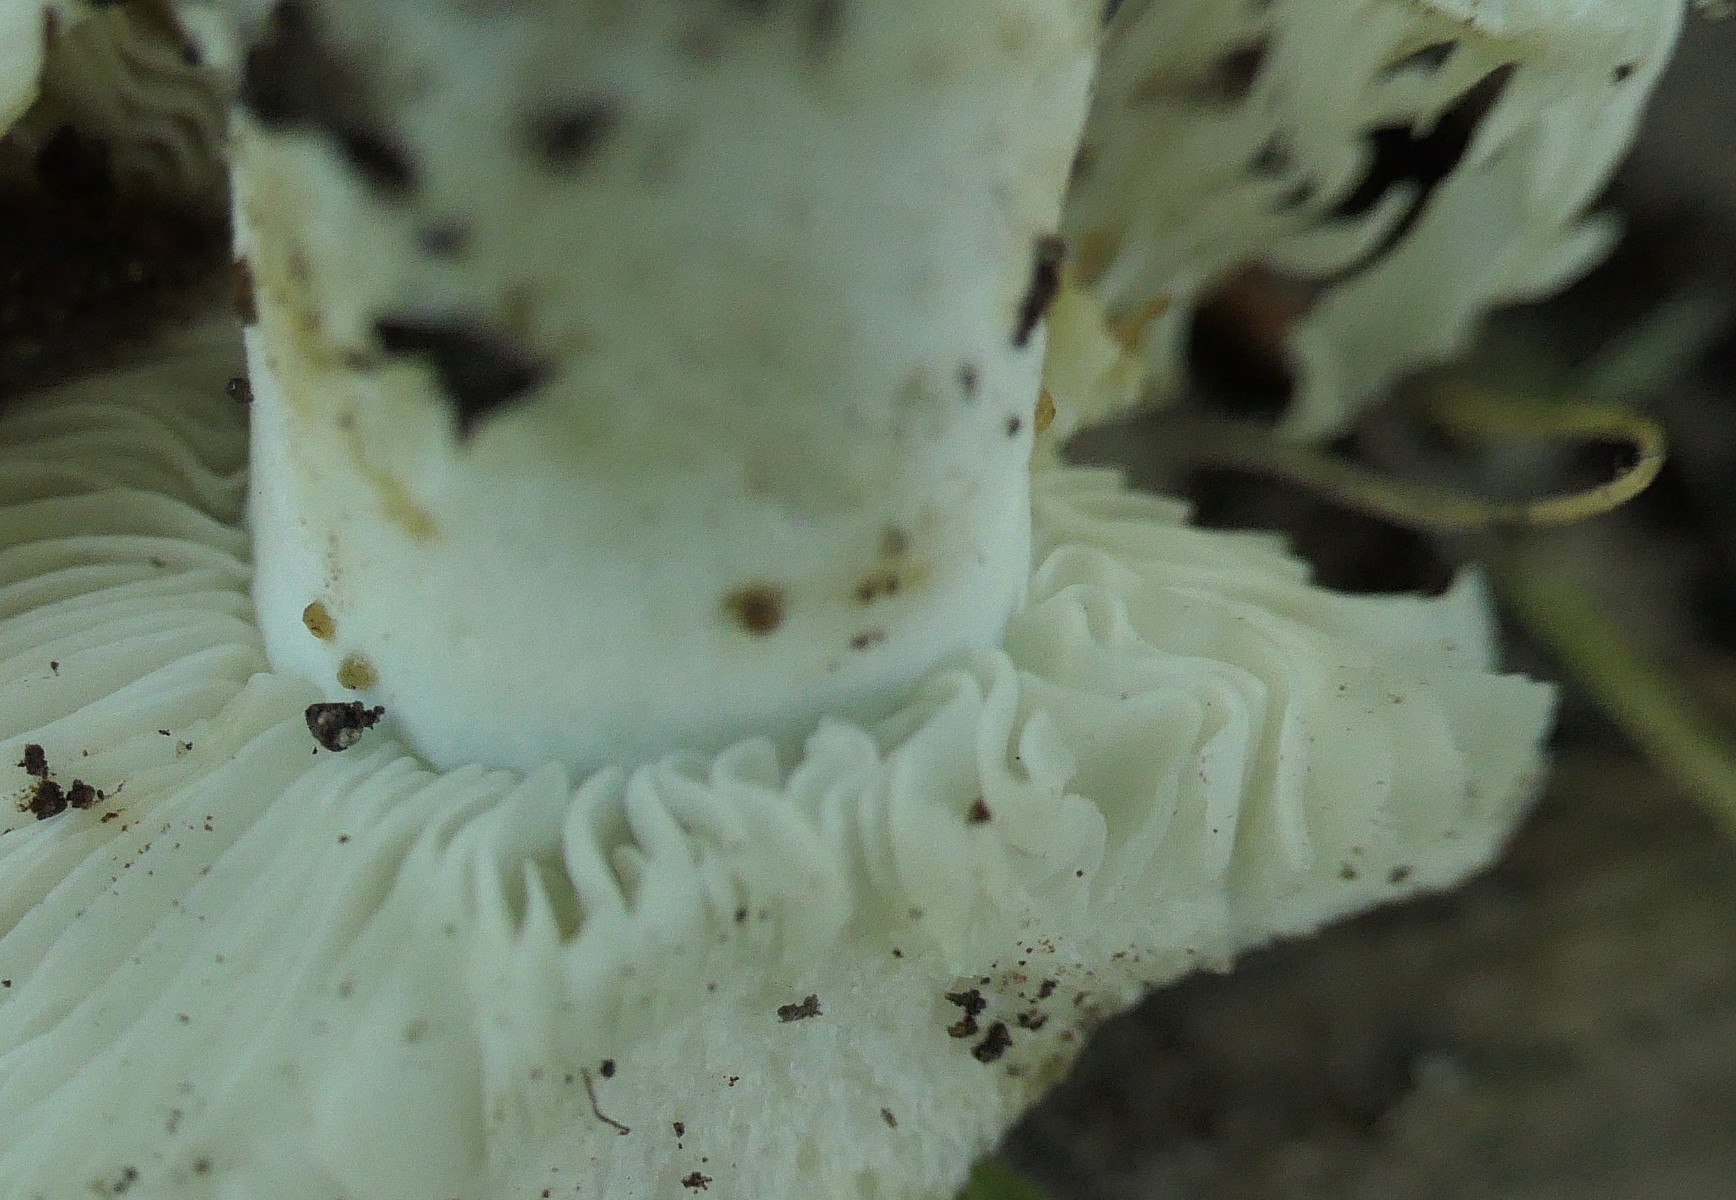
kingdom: Fungi
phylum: Basidiomycota
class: Agaricomycetes
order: Russulales
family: Russulaceae
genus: Russula
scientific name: Russula chloroides
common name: grønhalset tragt-skørhat
